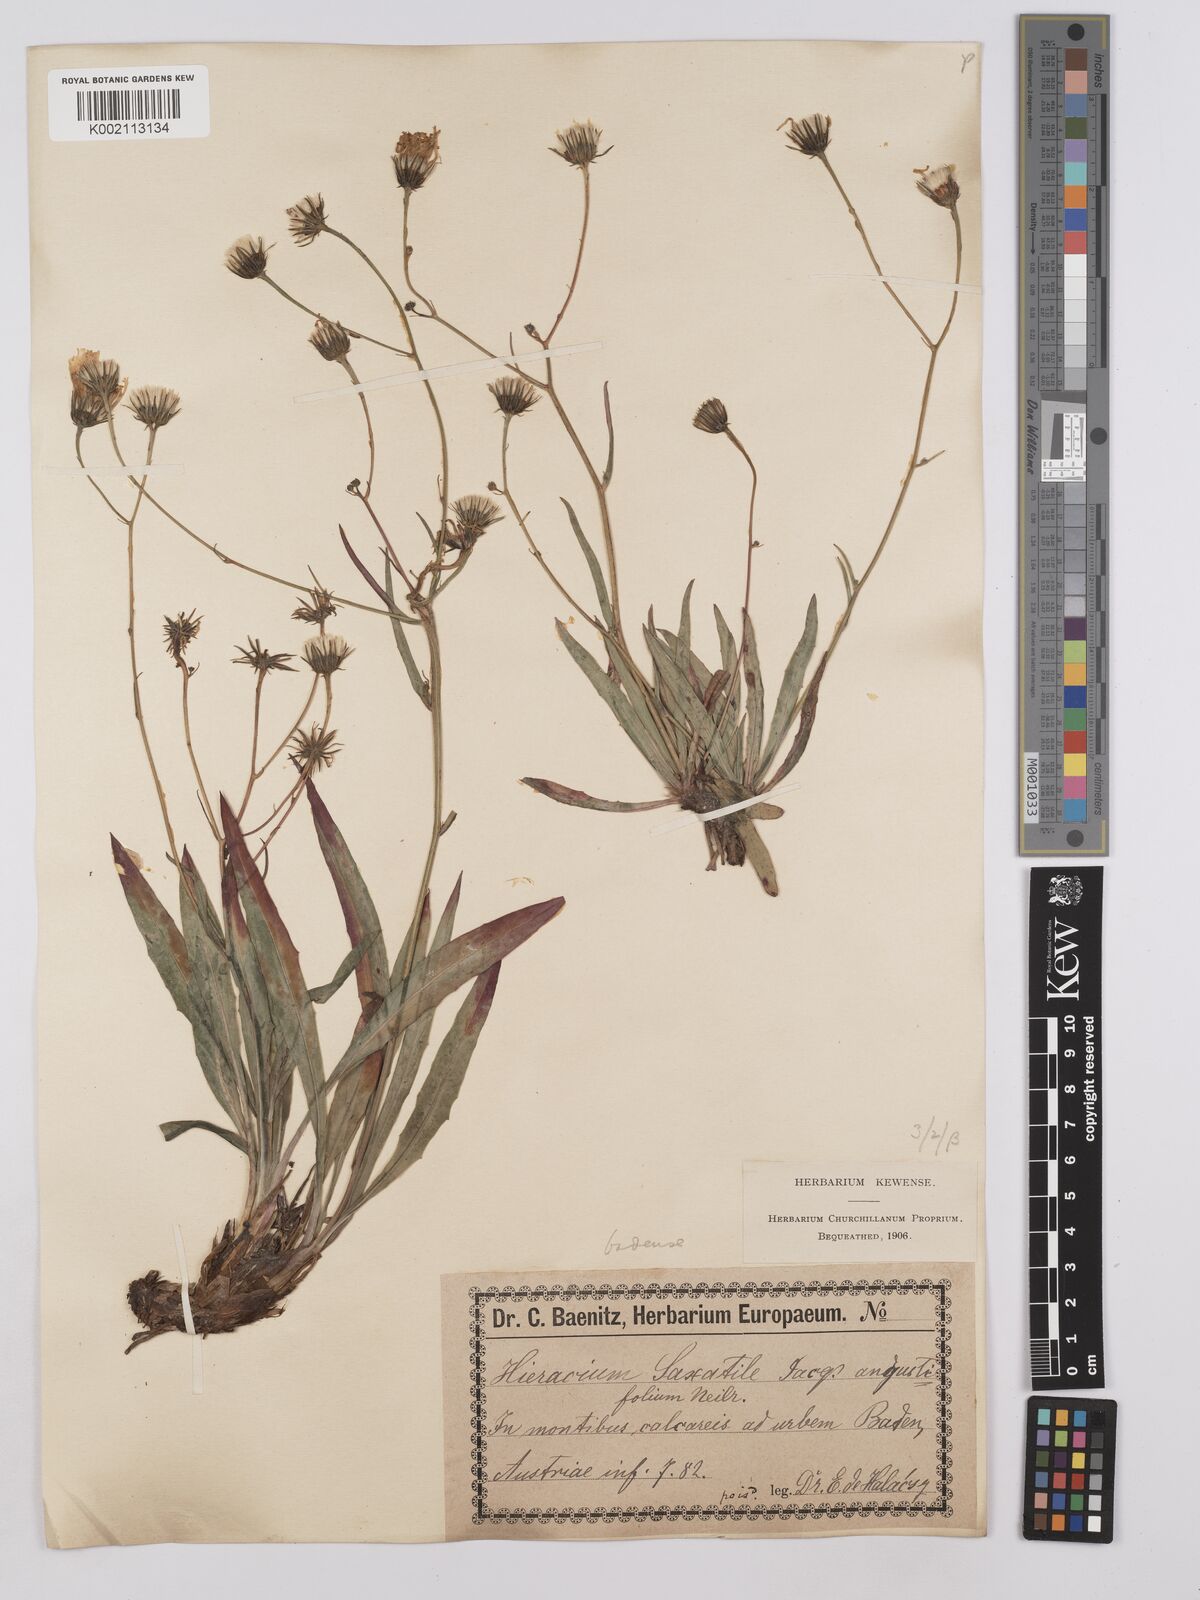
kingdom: Plantae
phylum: Tracheophyta
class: Magnoliopsida
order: Asterales
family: Asteraceae
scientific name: Asteraceae
